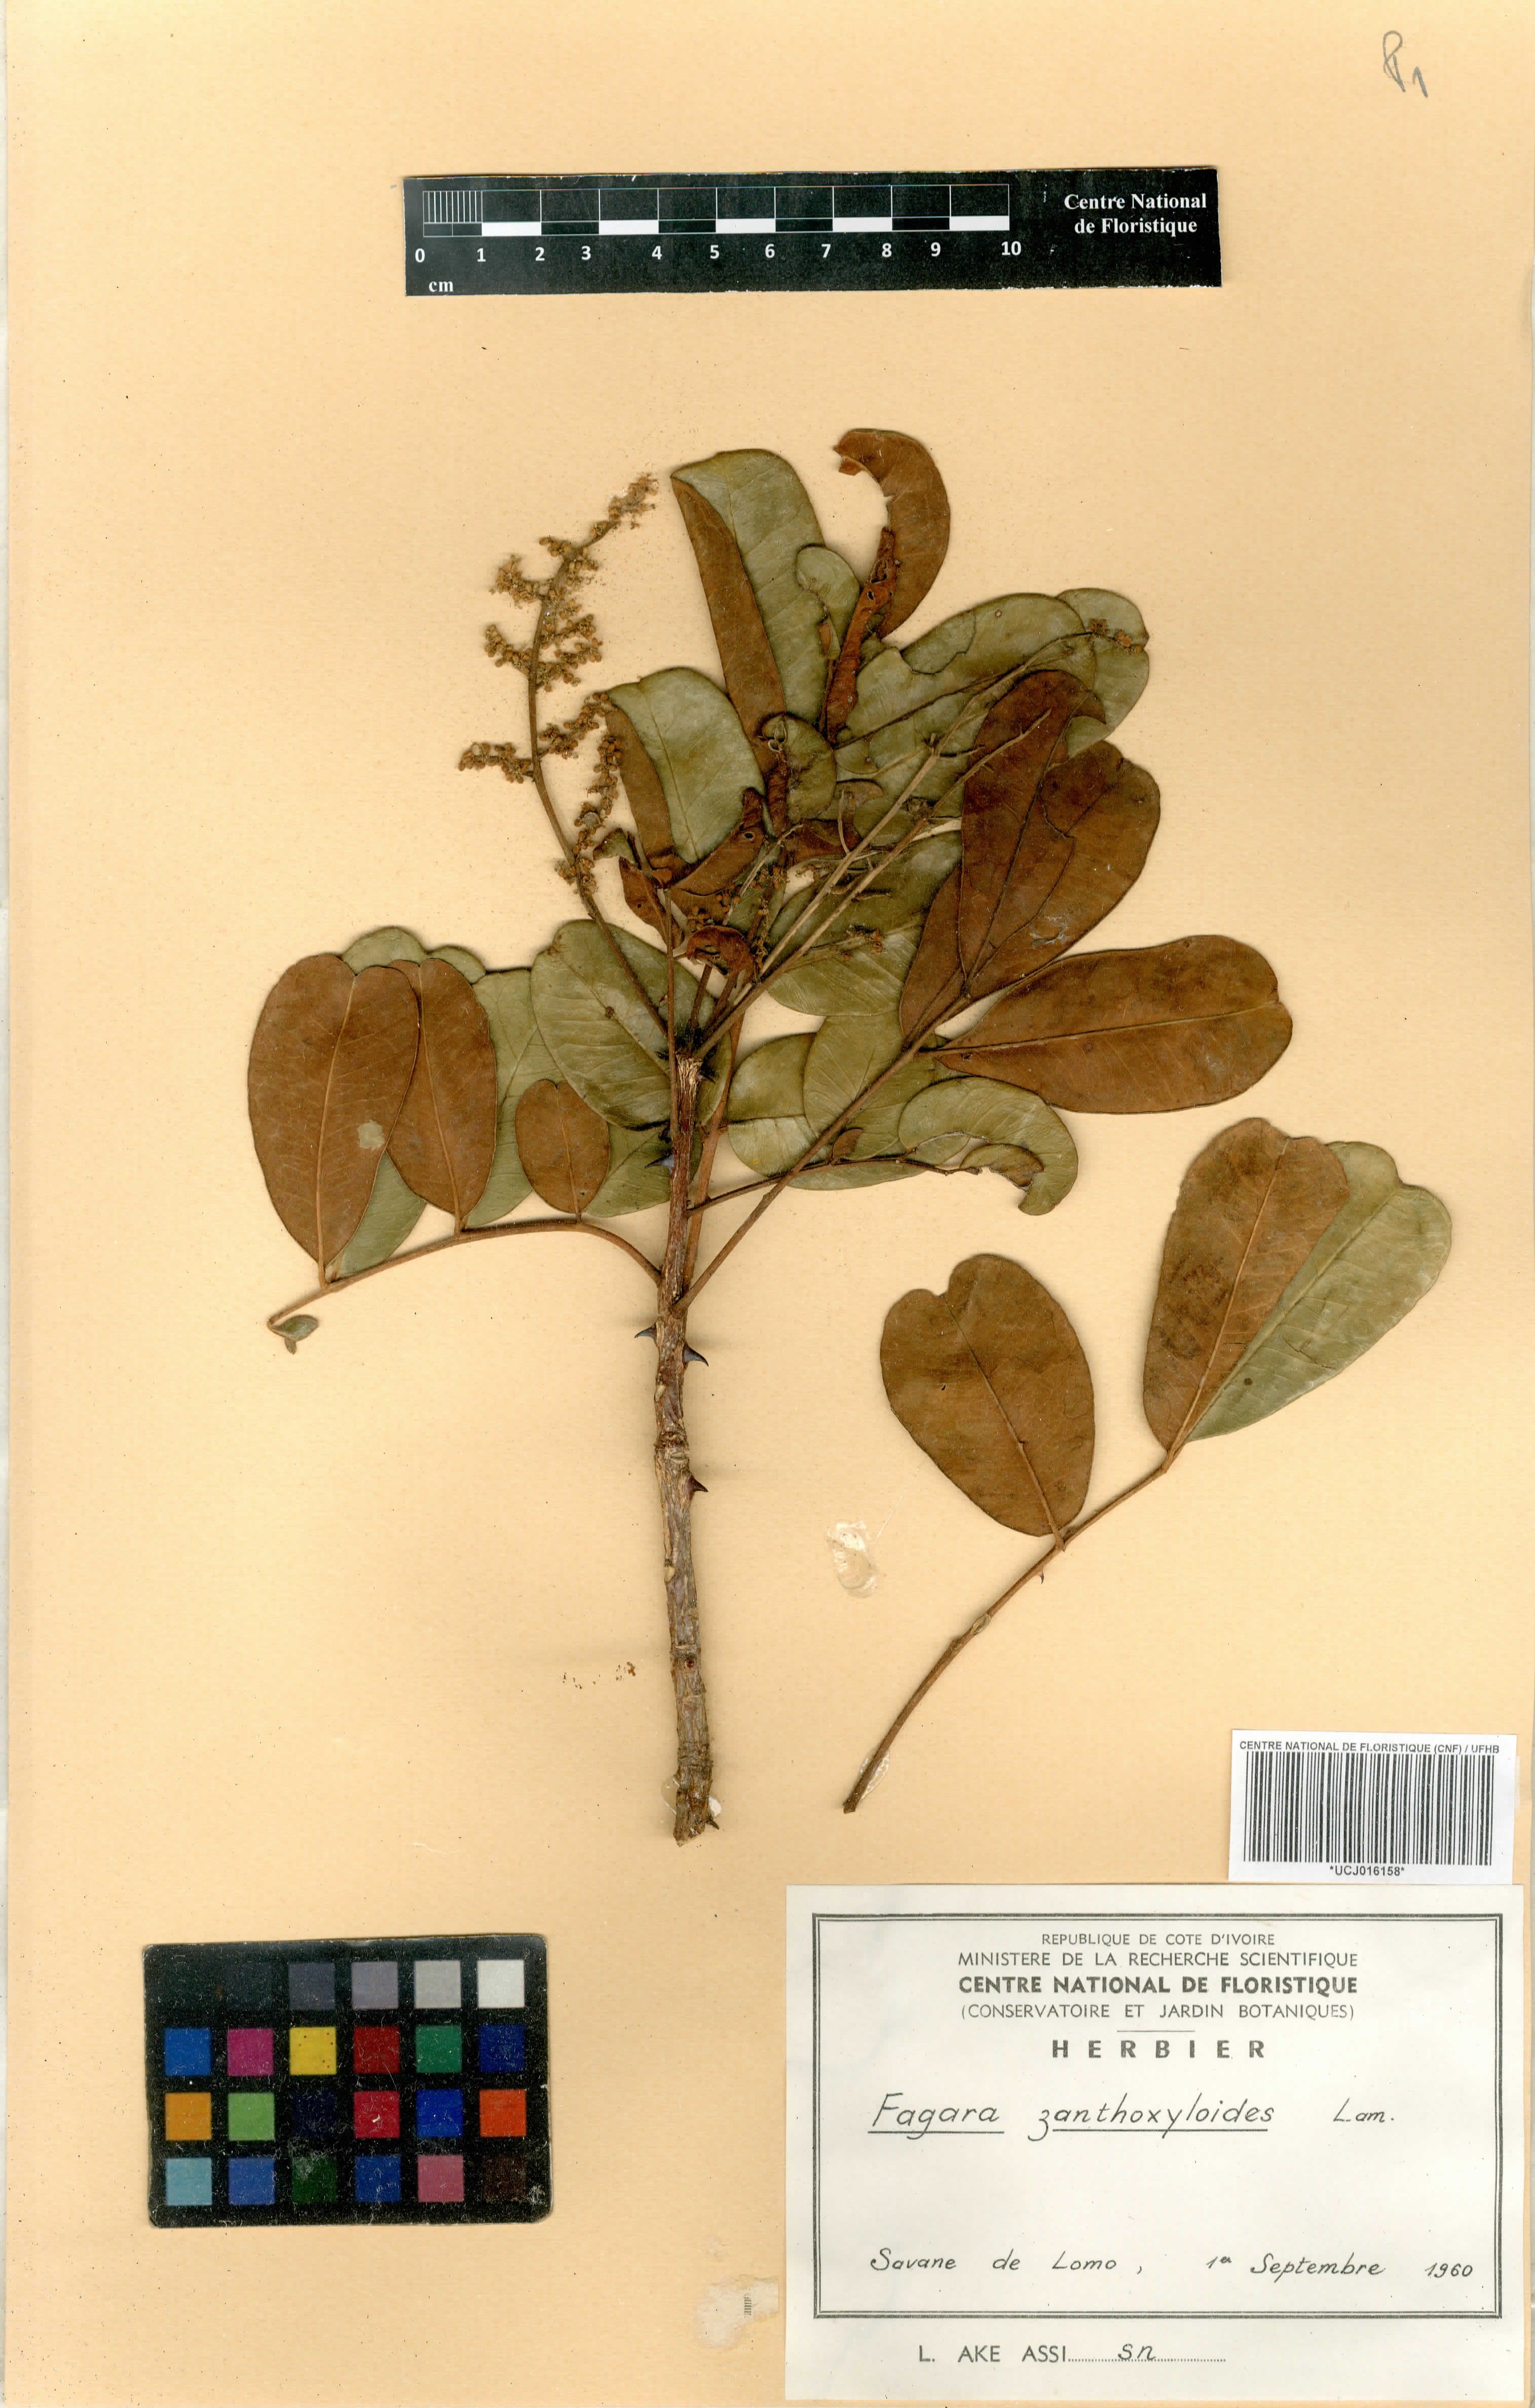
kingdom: Plantae
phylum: Tracheophyta
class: Magnoliopsida
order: Sapindales
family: Rutaceae
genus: Zanthoxylum
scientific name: Zanthoxylum zanthoxyloides
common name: Senegal prickly-ash
